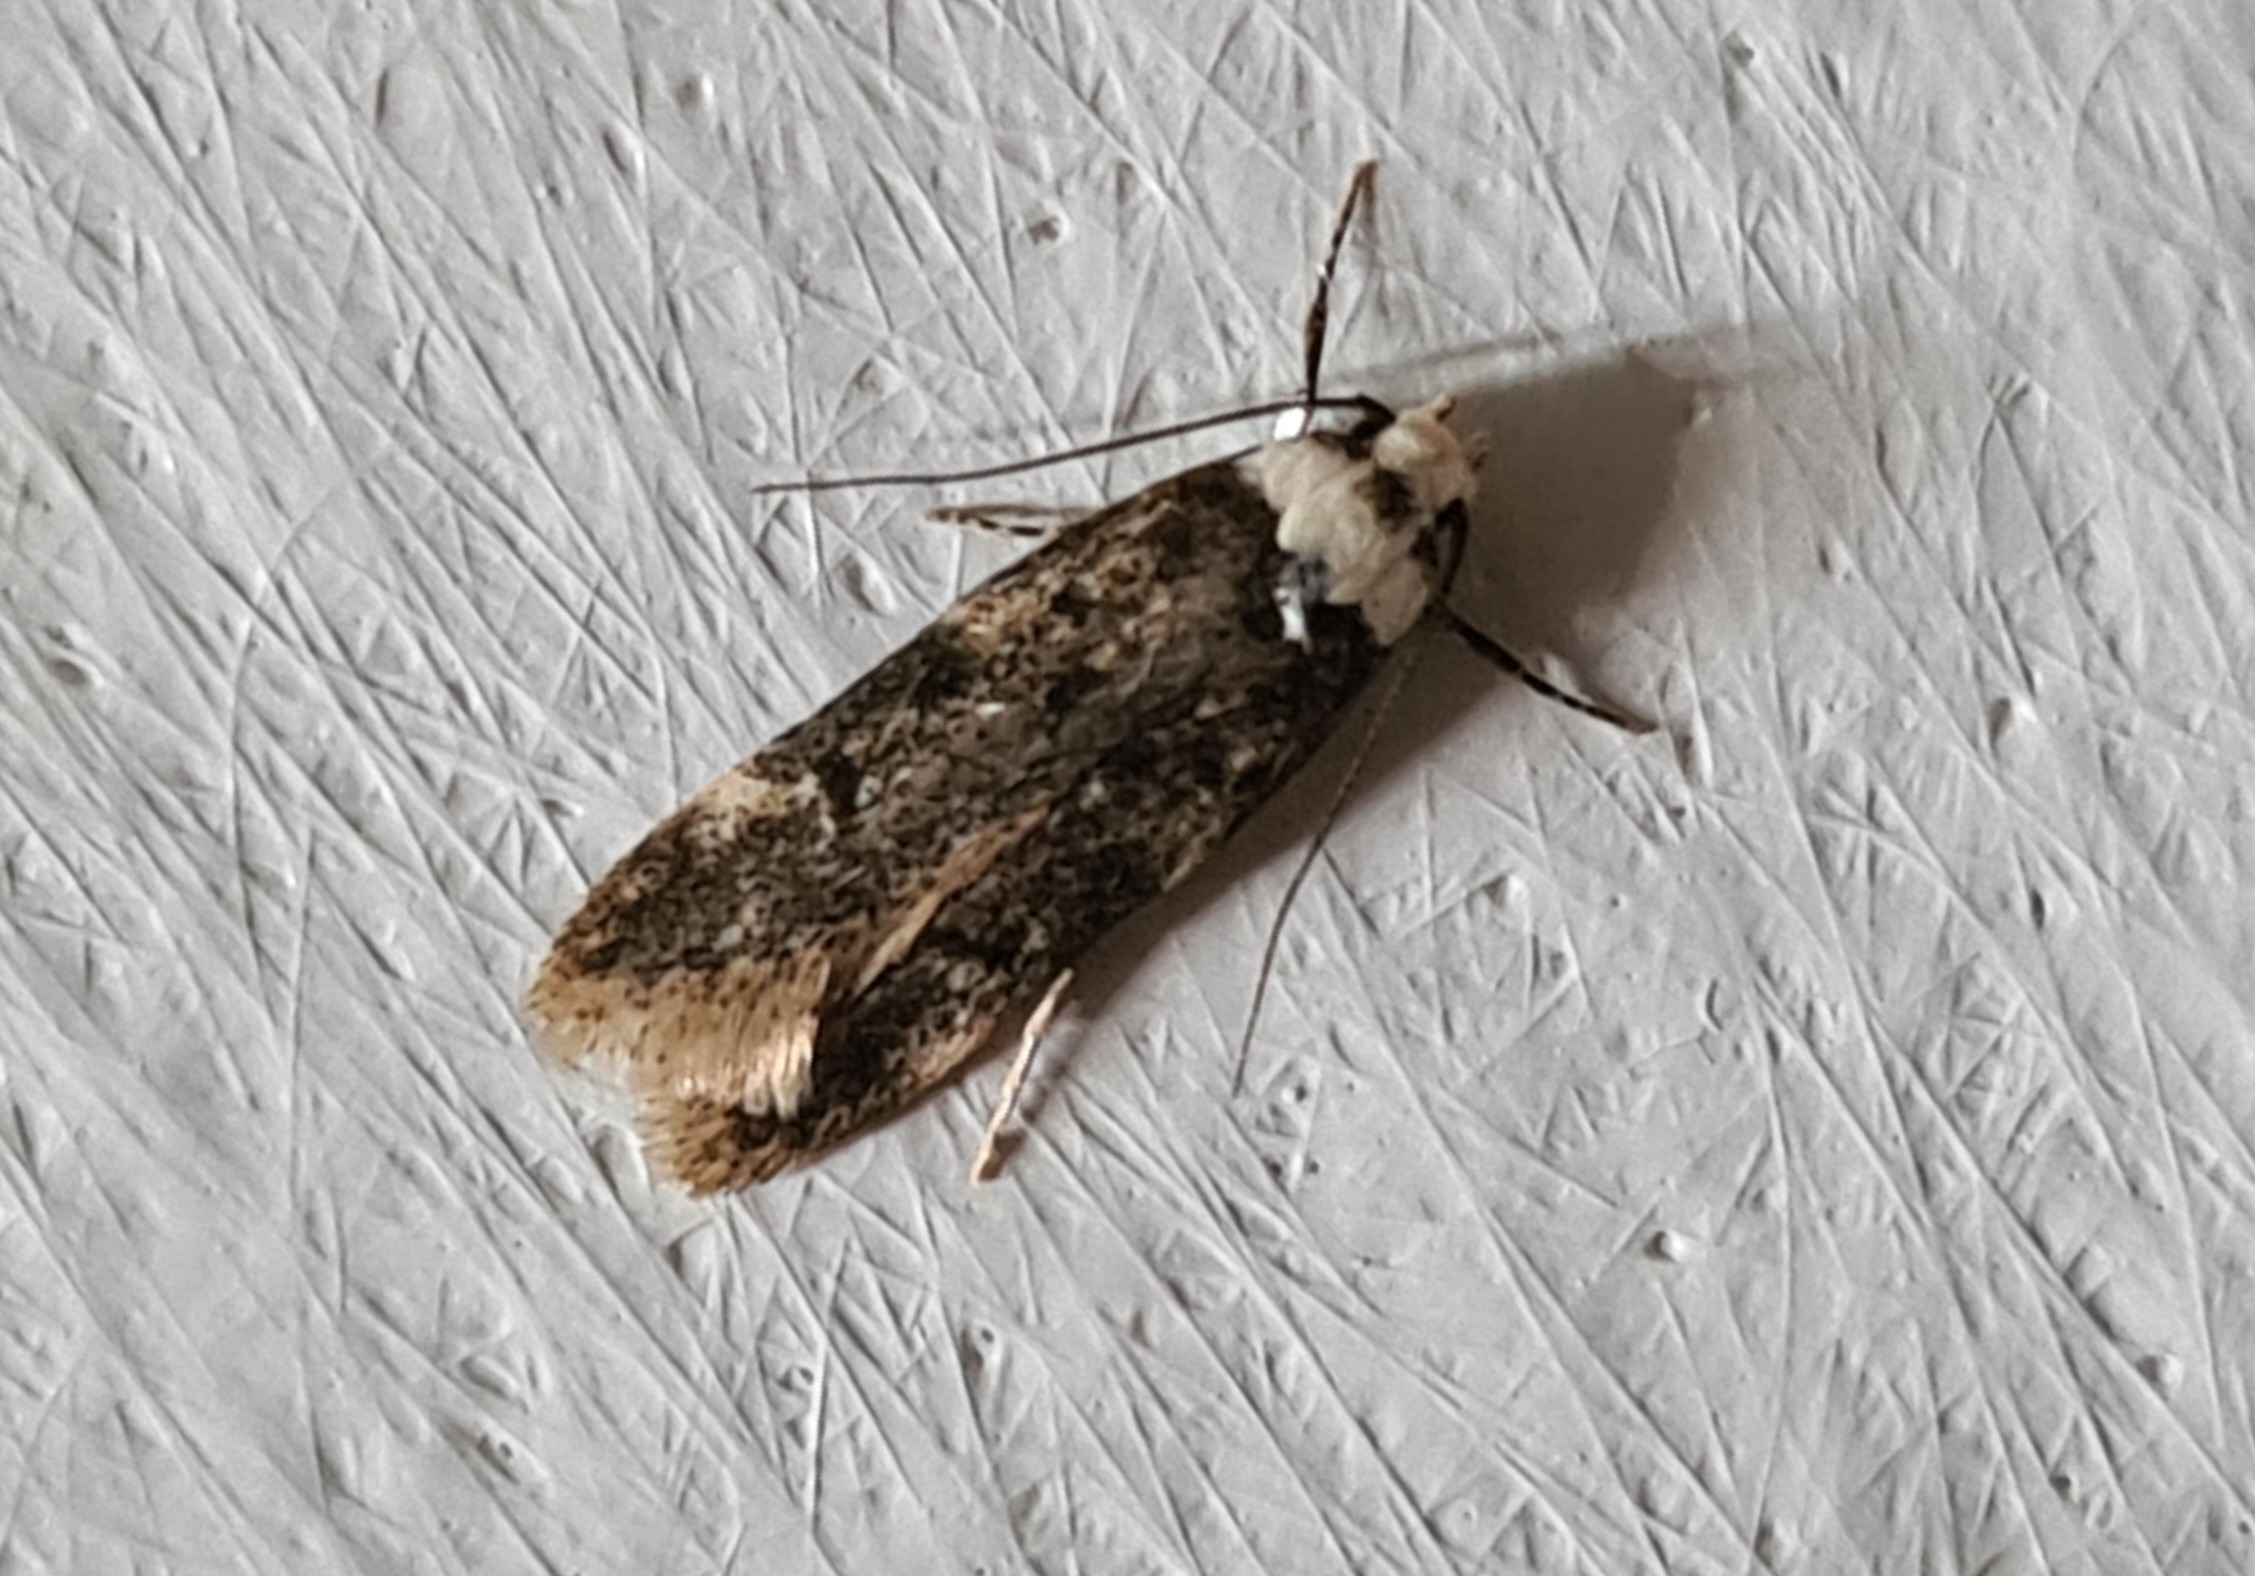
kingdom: Animalia
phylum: Arthropoda
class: Insecta
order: Lepidoptera
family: Oecophoridae
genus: Endrosis
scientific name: Endrosis sarcitrella
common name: Klistermøl
